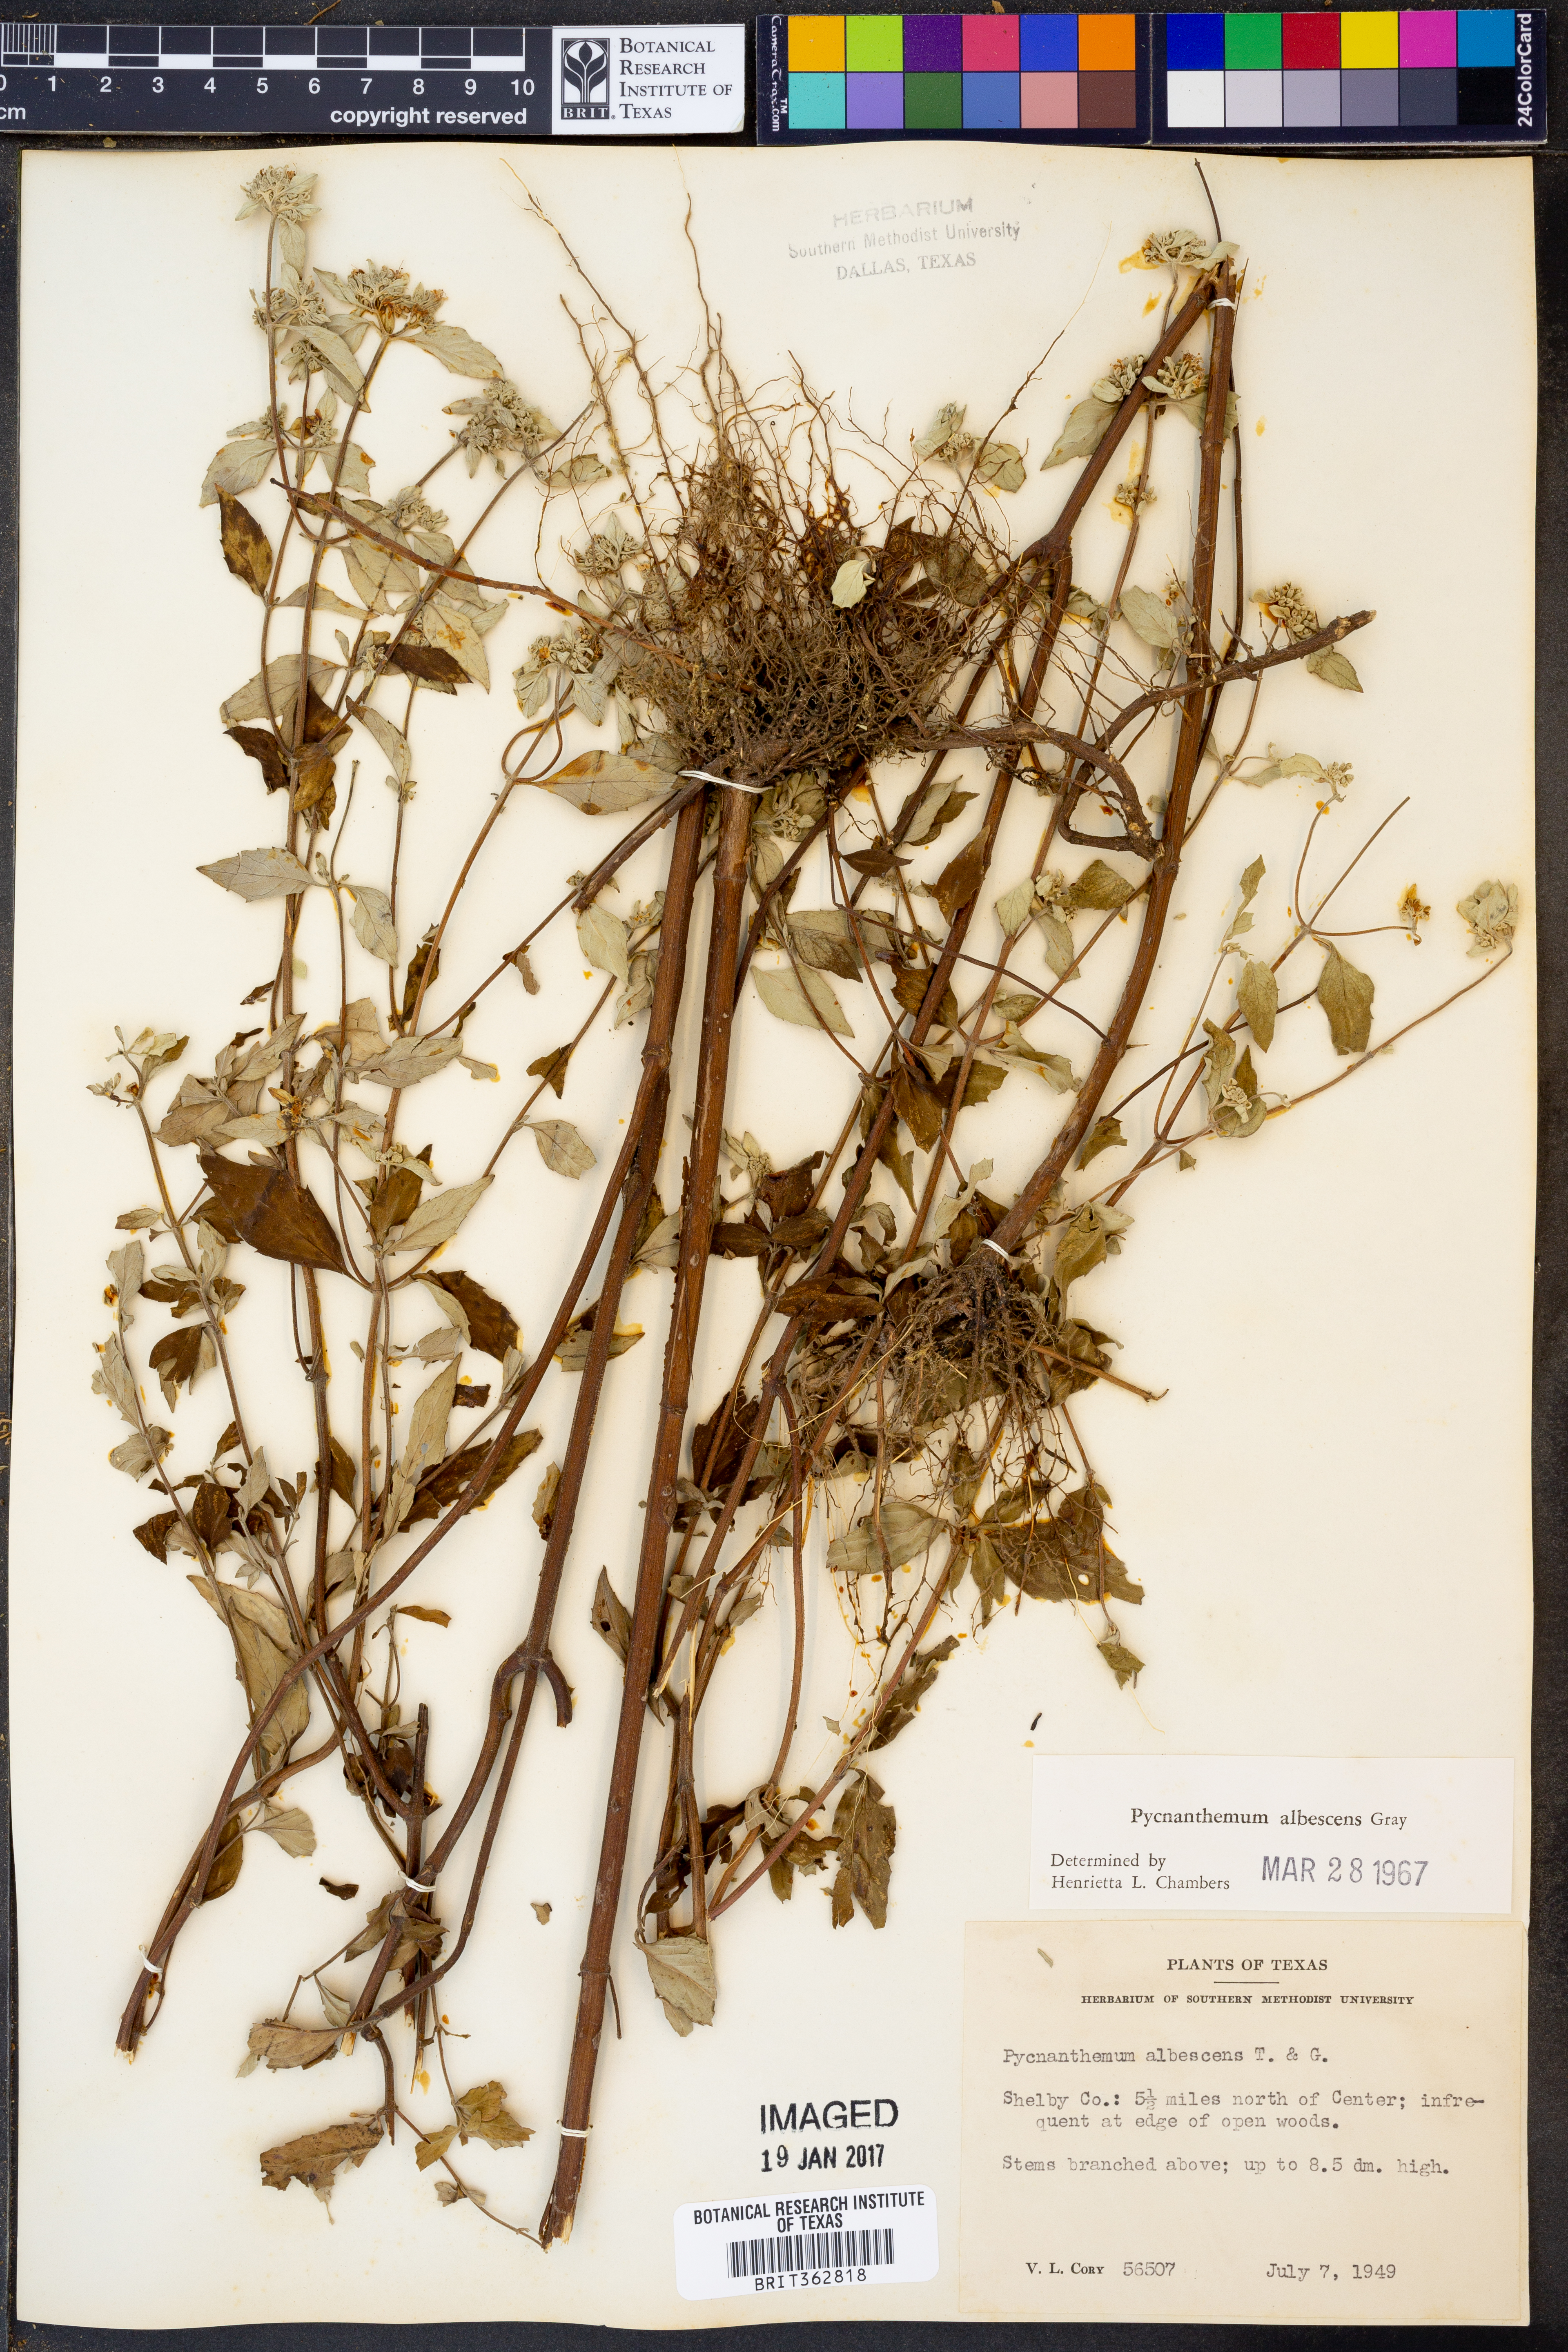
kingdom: Plantae
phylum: Tracheophyta
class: Magnoliopsida
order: Lamiales
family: Lamiaceae
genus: Pycnanthemum
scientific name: Pycnanthemum albescens
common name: White-leaf mountain-mint
